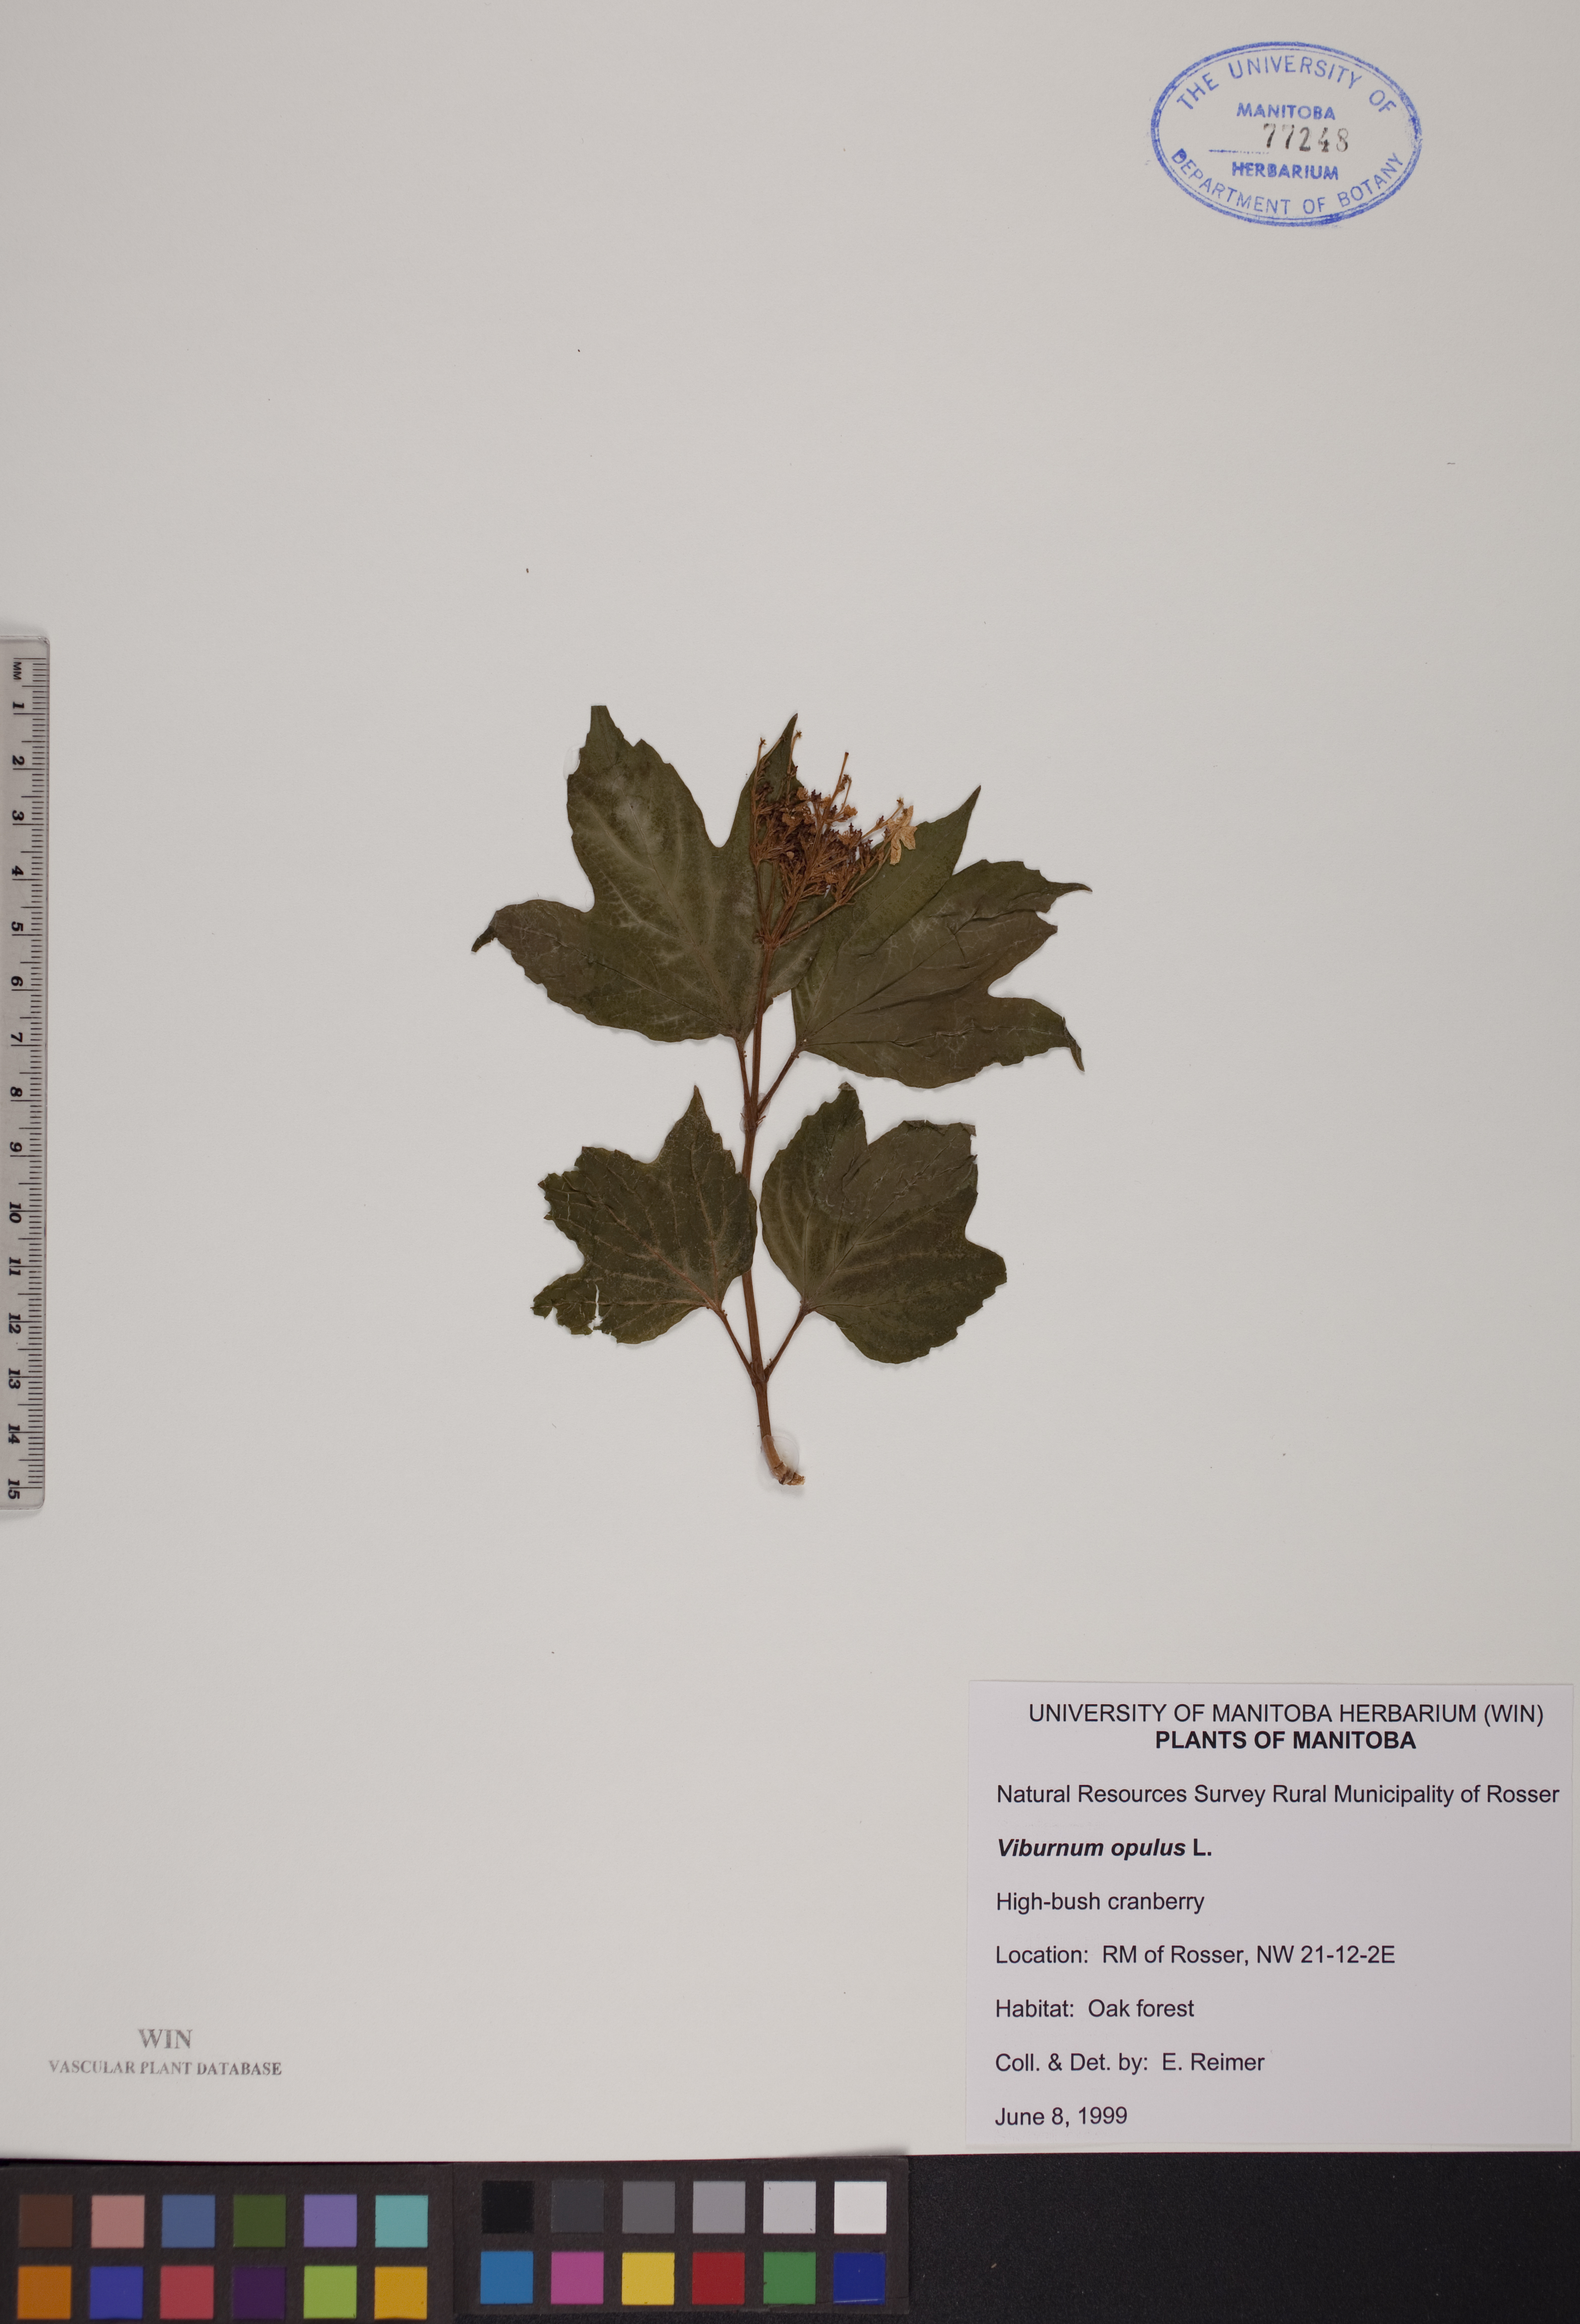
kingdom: Plantae
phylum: Tracheophyta
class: Magnoliopsida
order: Dipsacales
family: Viburnaceae
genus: Viburnum
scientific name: Viburnum opulus
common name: Guelder-rose
